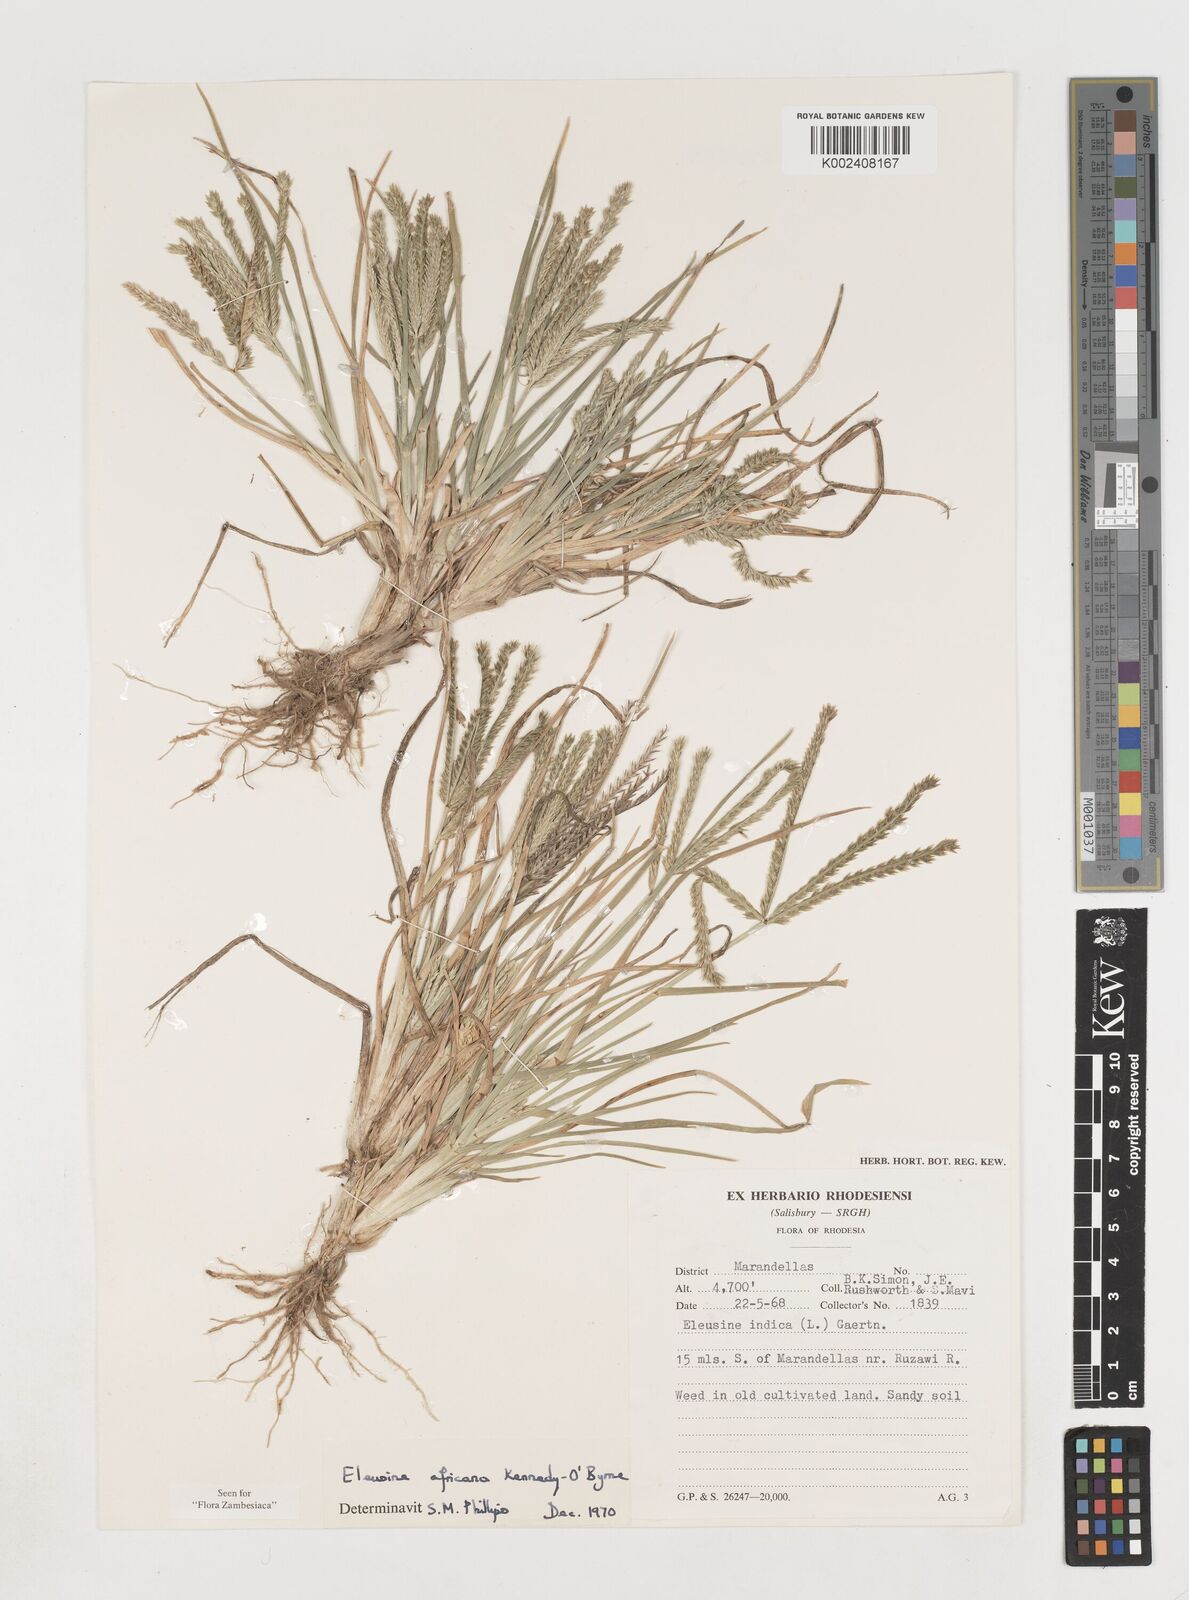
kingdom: Plantae
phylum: Tracheophyta
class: Liliopsida
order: Poales
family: Poaceae
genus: Eleusine
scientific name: Eleusine africana
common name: Wild african finger millet
